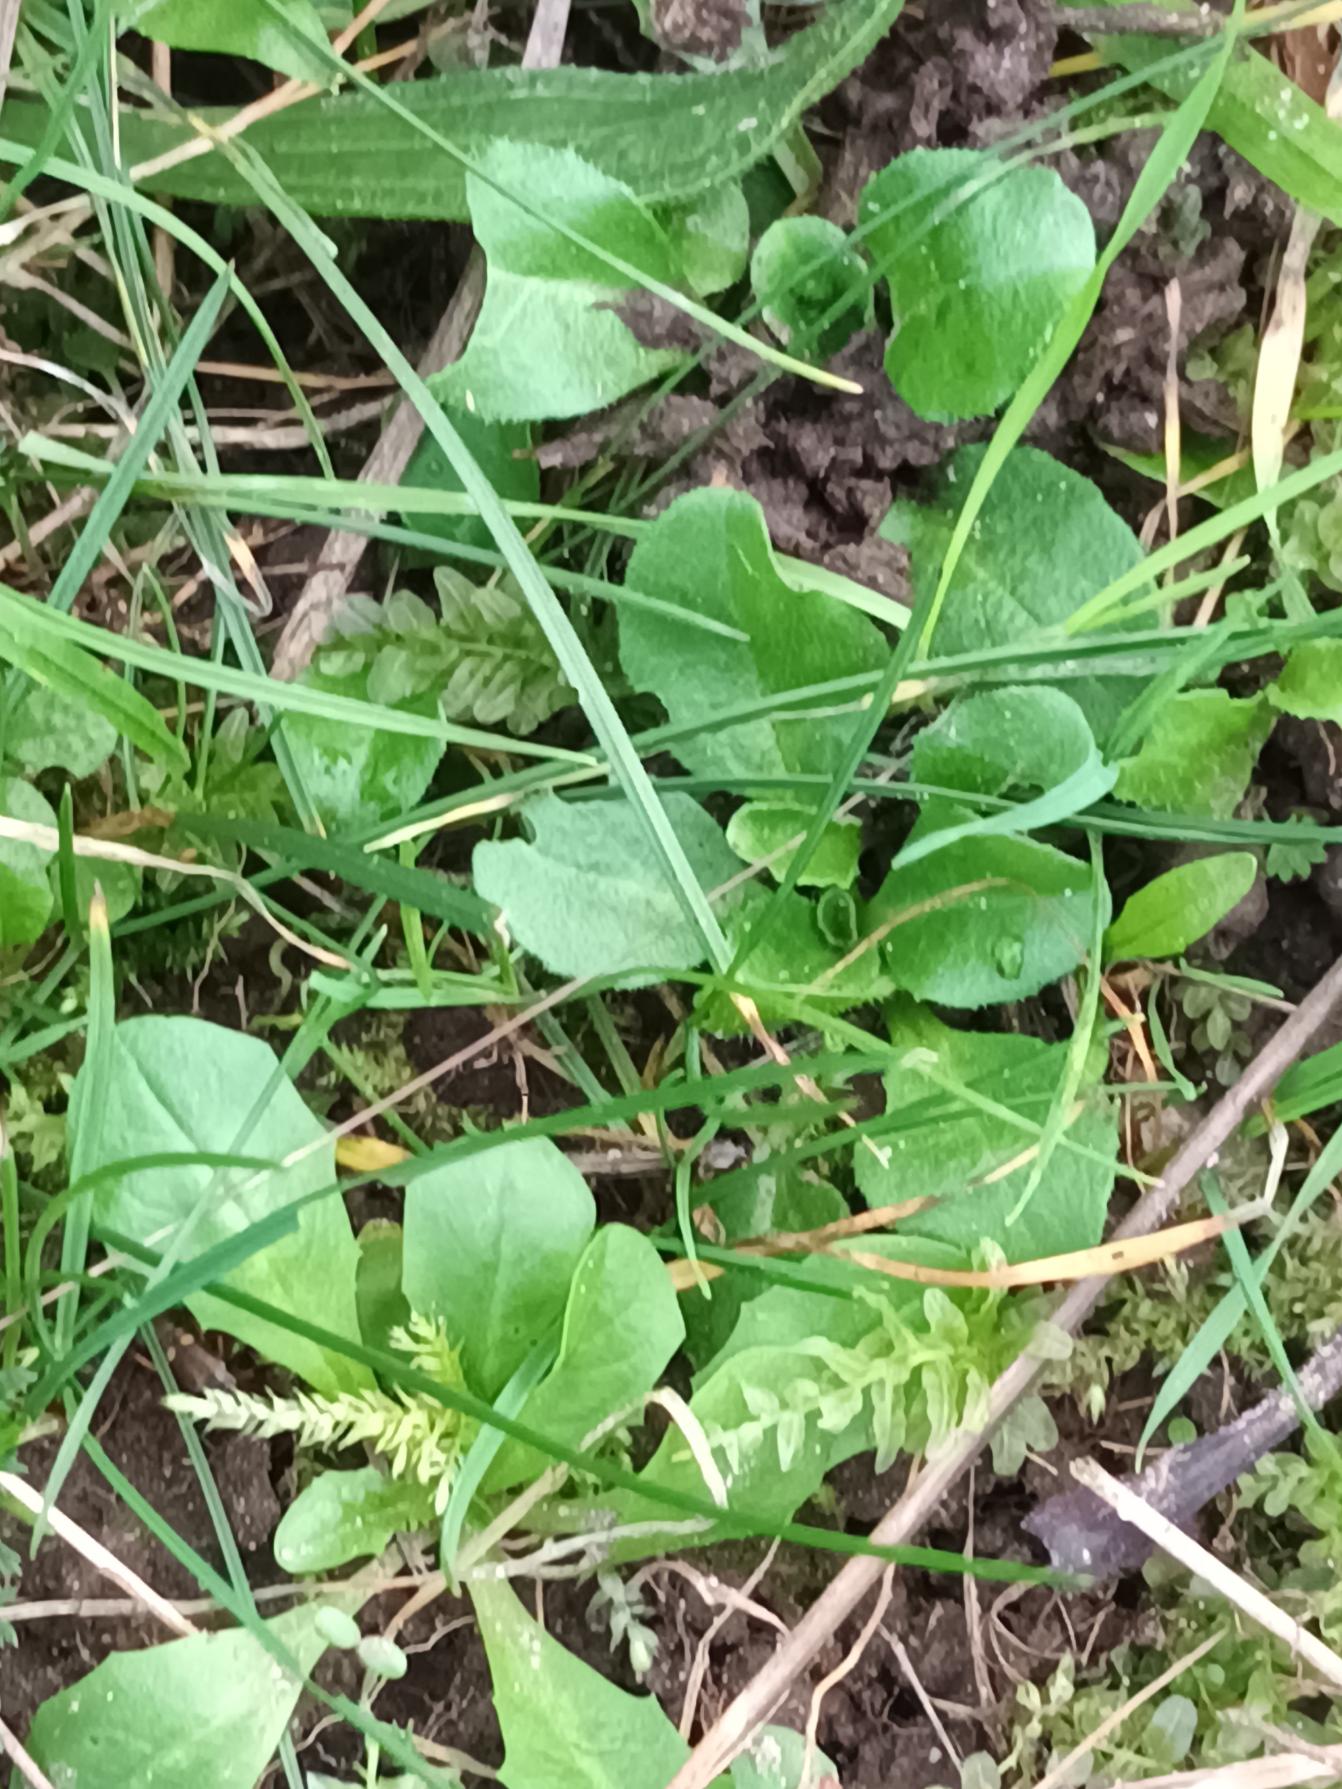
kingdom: Plantae
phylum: Tracheophyta
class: Magnoliopsida
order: Asterales
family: Asteraceae
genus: Bellis
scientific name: Bellis perennis
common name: Tusindfryd
